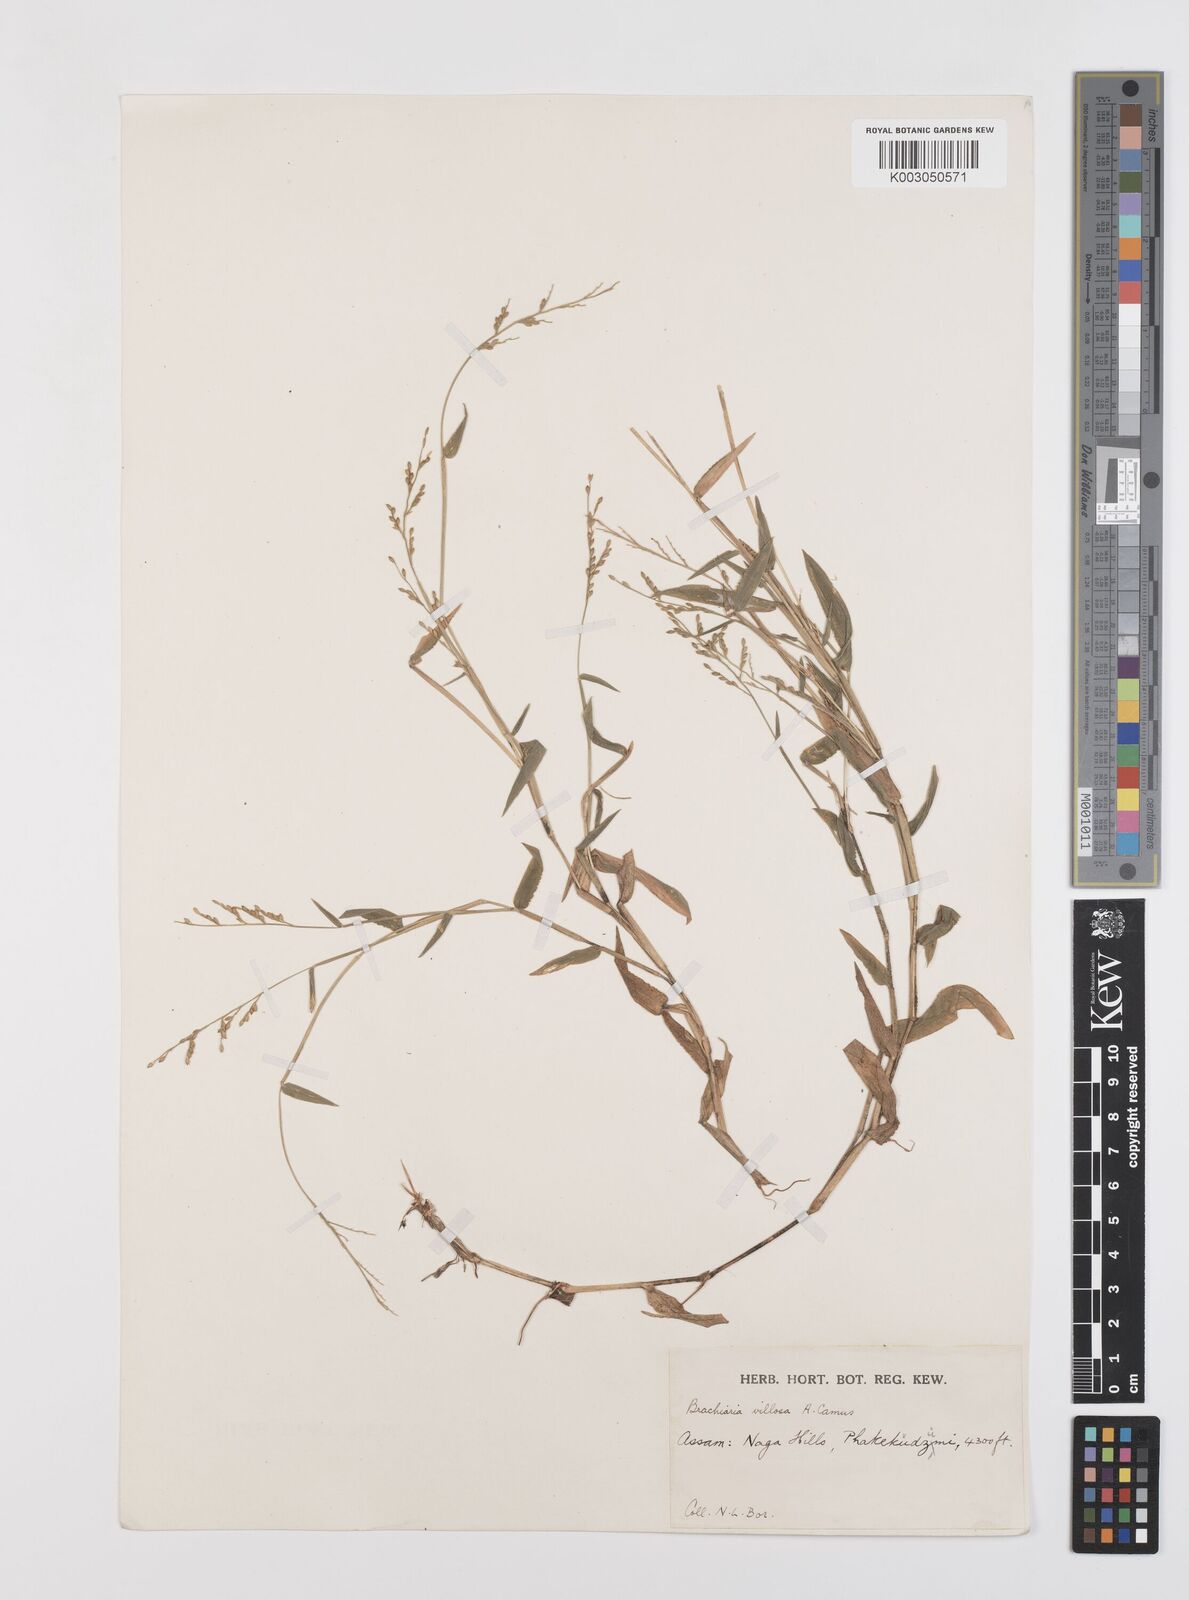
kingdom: Plantae
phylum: Tracheophyta
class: Liliopsida
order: Poales
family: Poaceae
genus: Urochloa
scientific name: Urochloa villosa
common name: Hairy signalgrass
